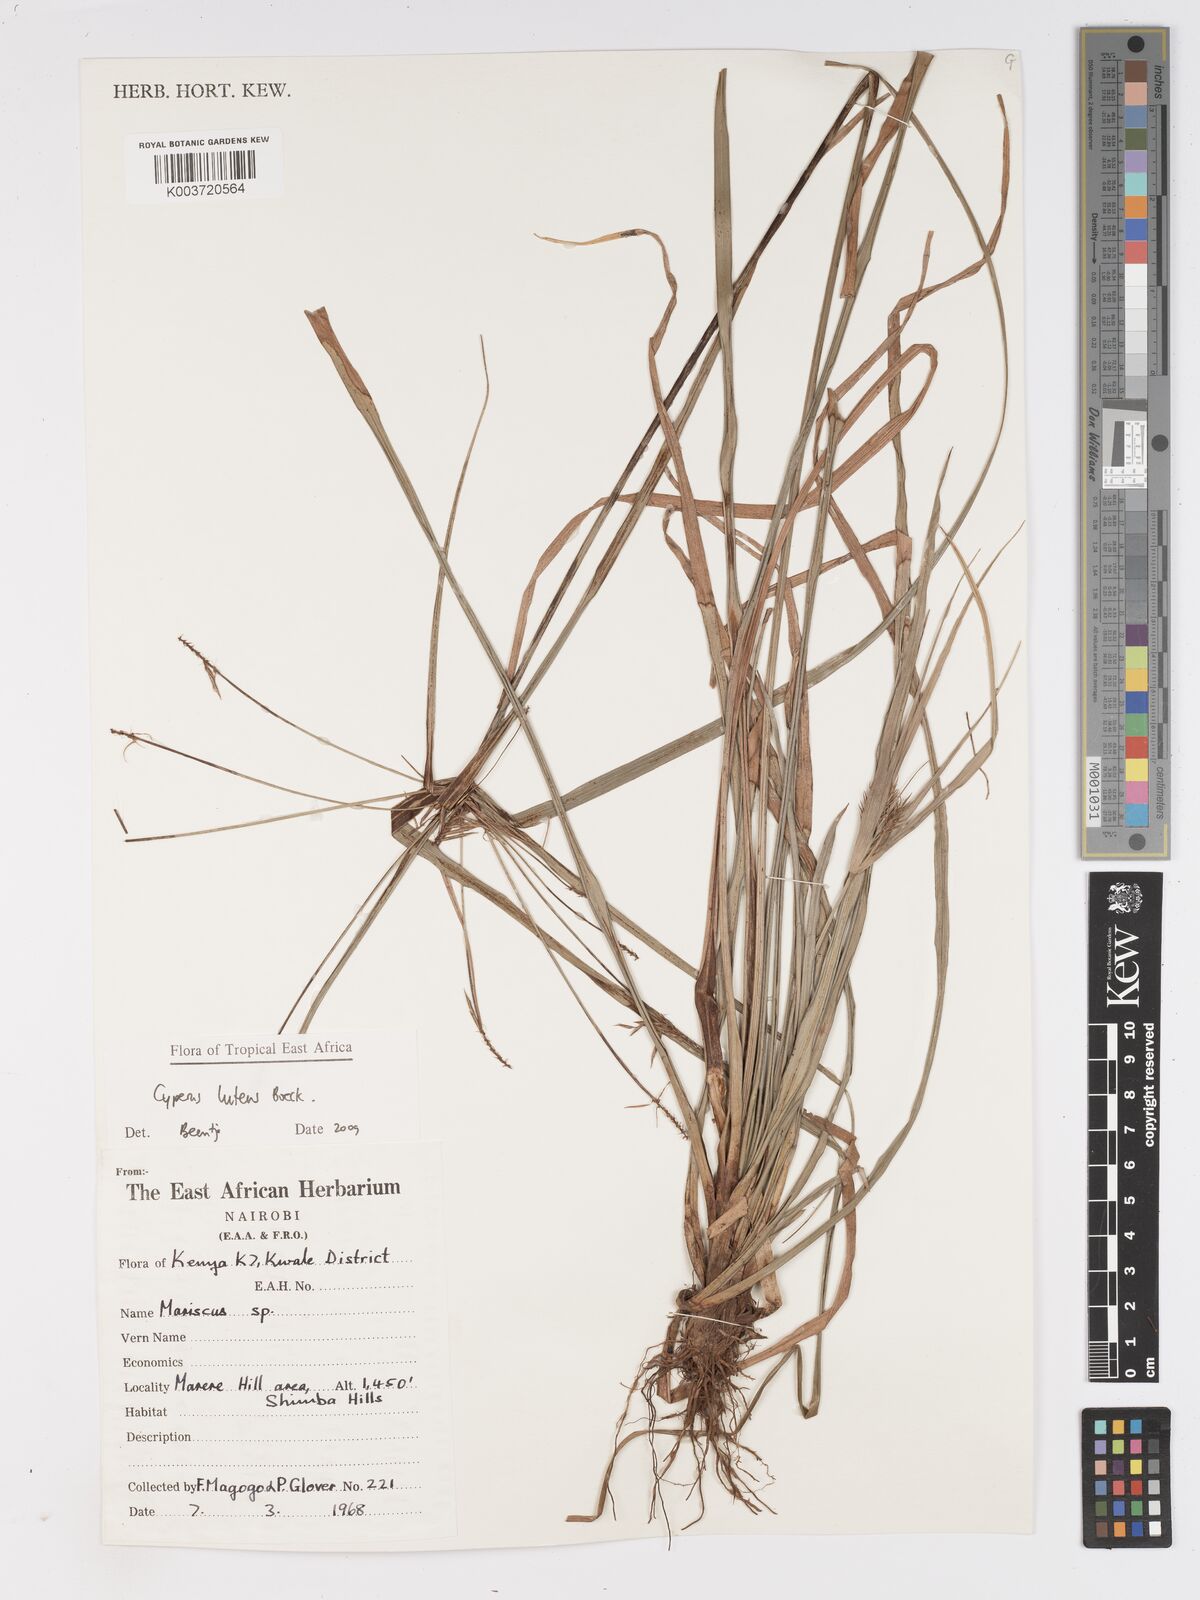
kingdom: Plantae
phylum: Tracheophyta
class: Liliopsida
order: Poales
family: Cyperaceae
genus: Cyperus
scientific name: Cyperus luteus
